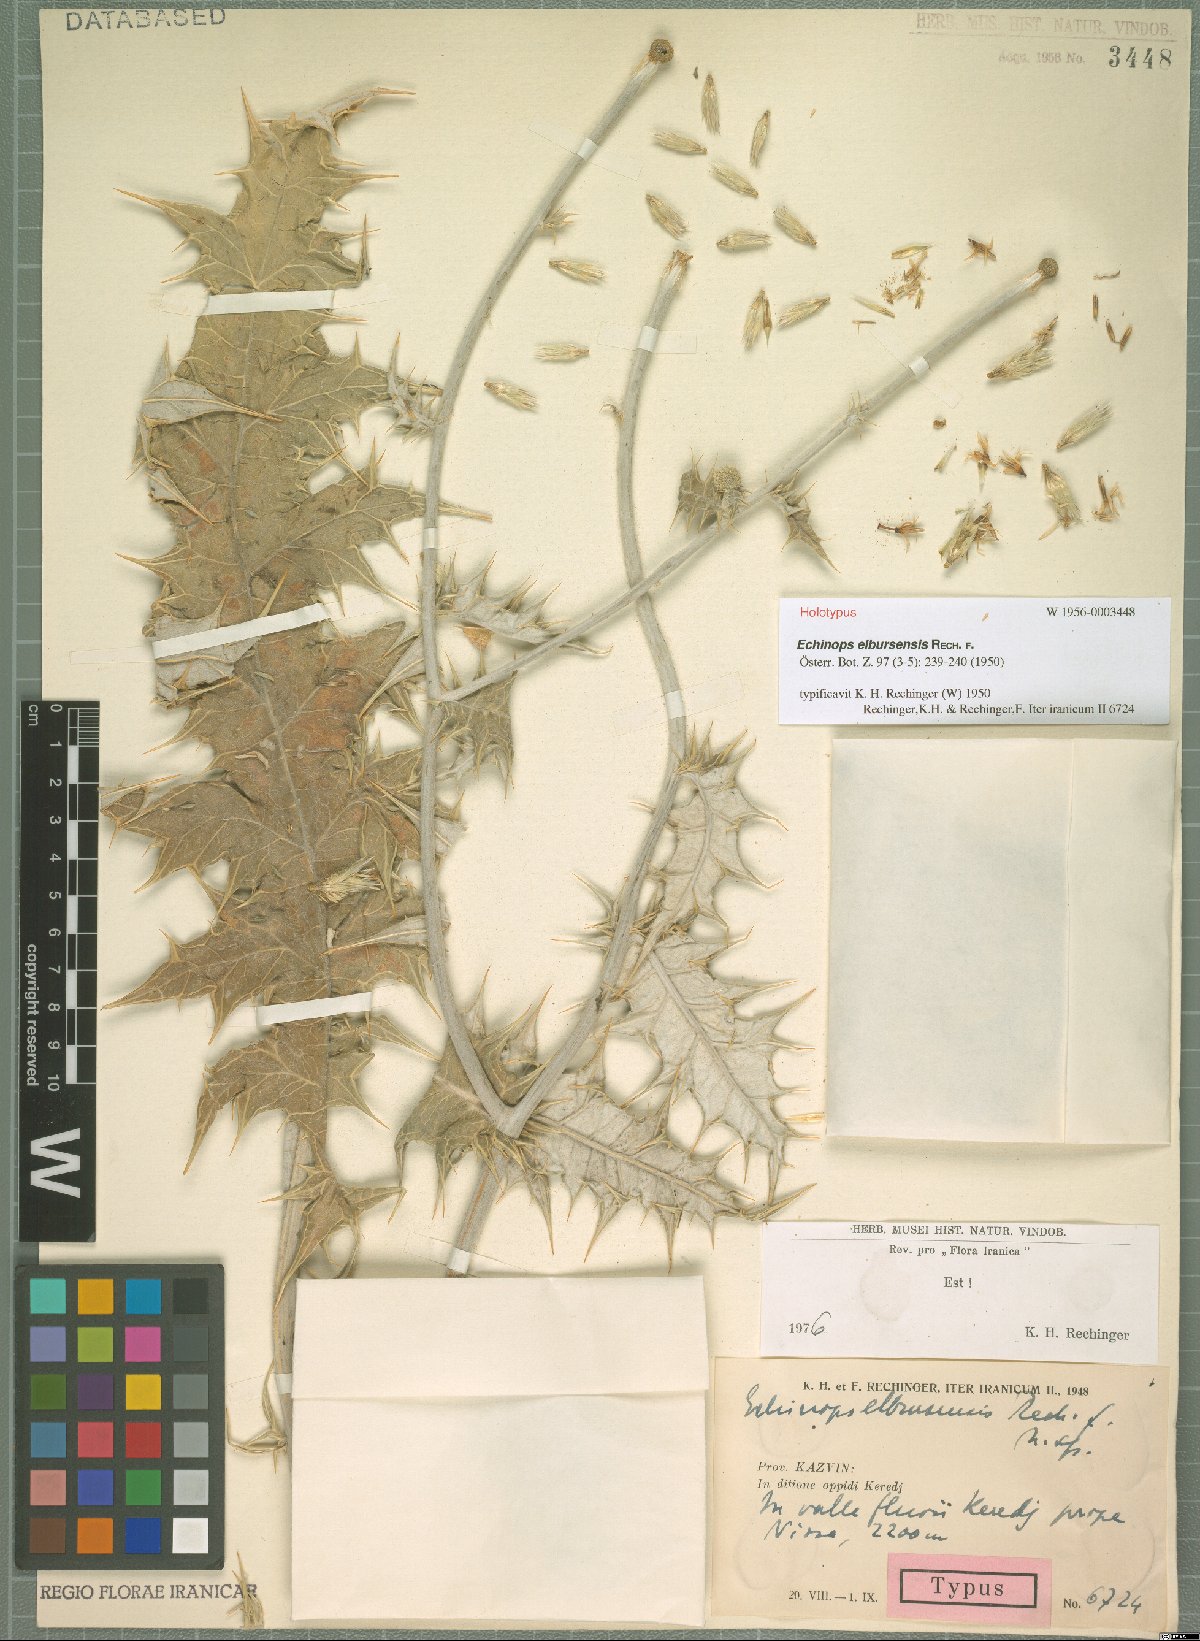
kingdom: Plantae
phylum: Tracheophyta
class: Magnoliopsida
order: Asterales
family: Asteraceae
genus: Echinops
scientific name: Echinops ritro
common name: Globe thistle
